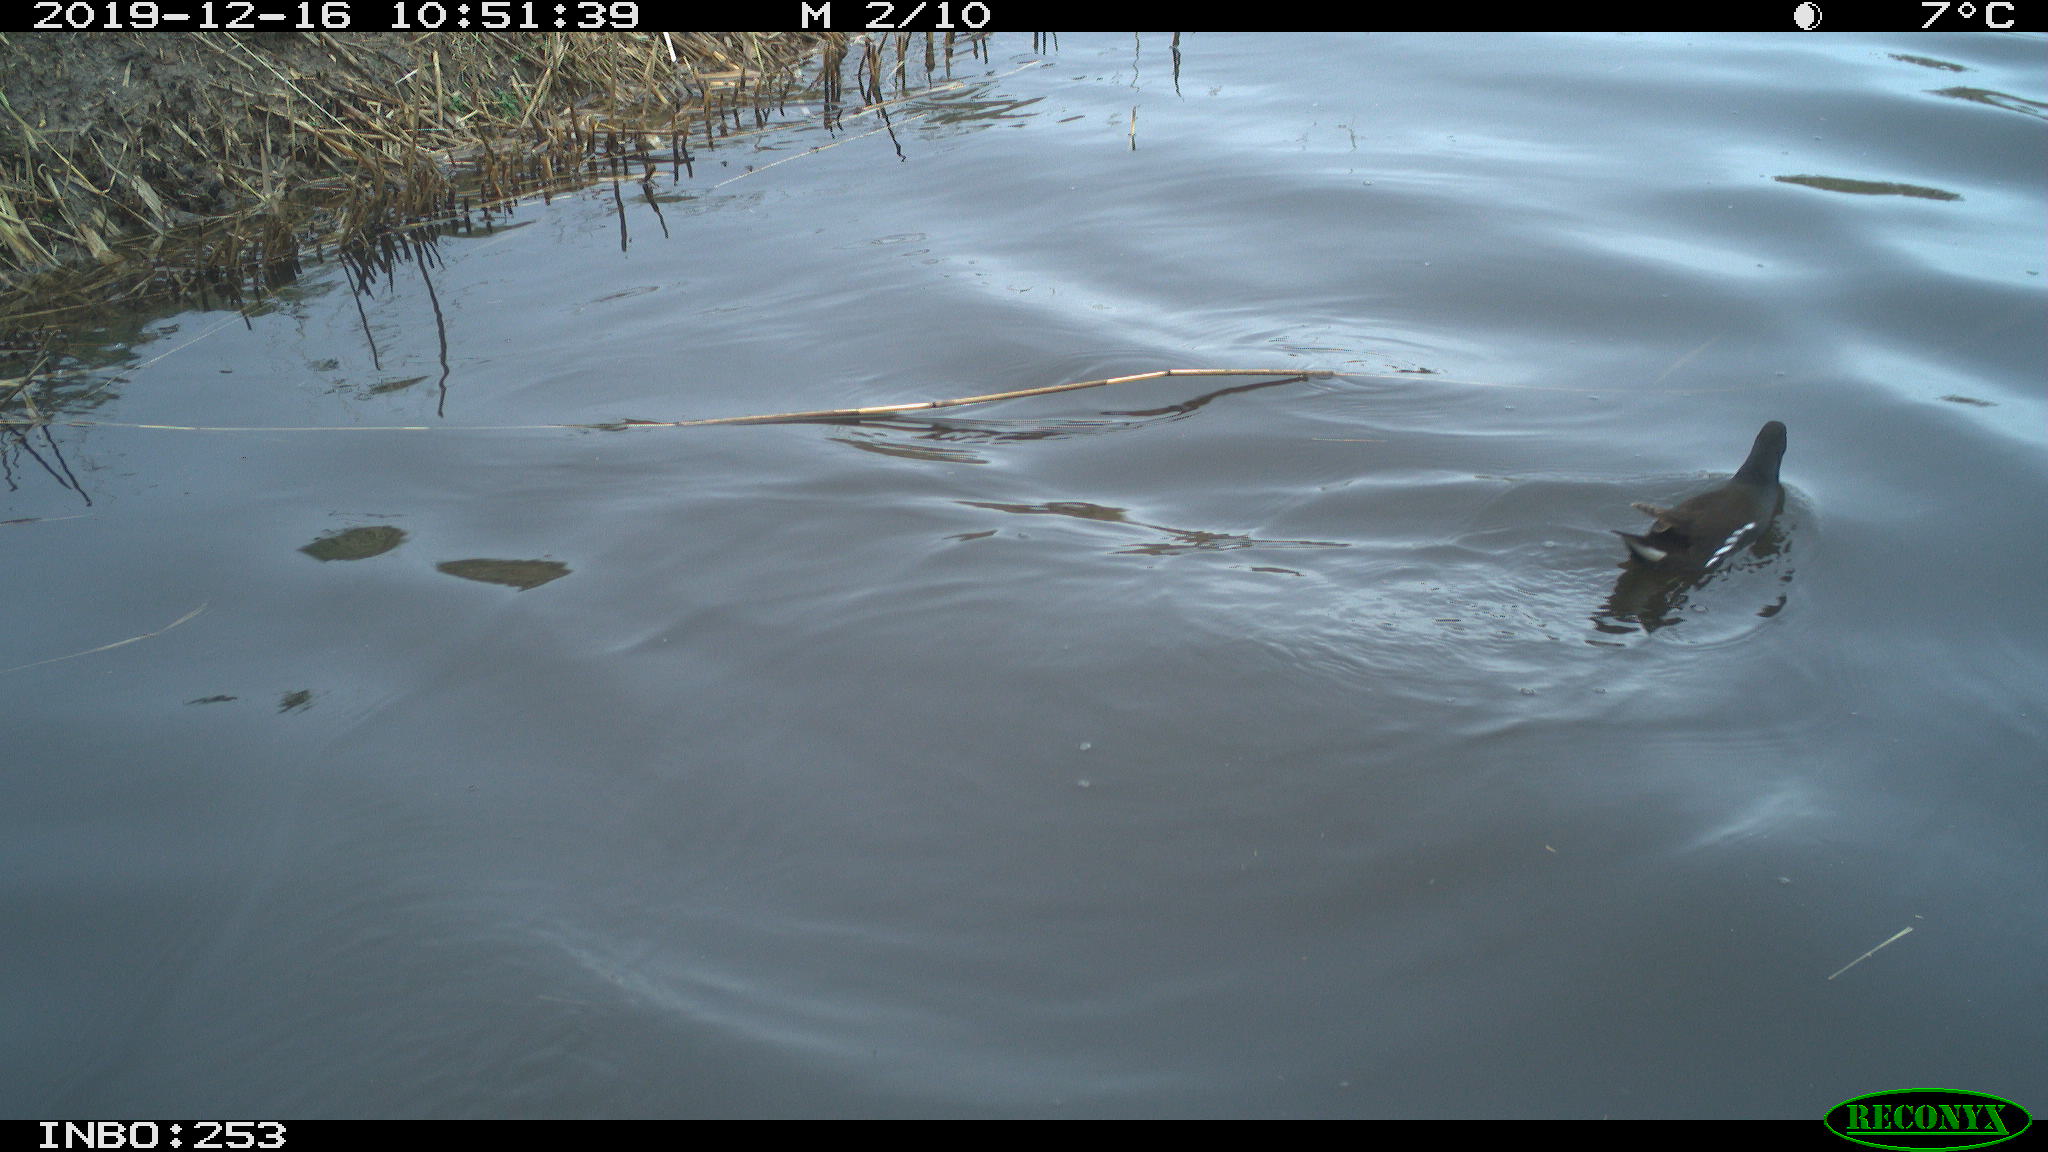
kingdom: Animalia
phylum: Chordata
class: Aves
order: Gruiformes
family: Rallidae
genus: Gallinula
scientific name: Gallinula chloropus
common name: Common moorhen
